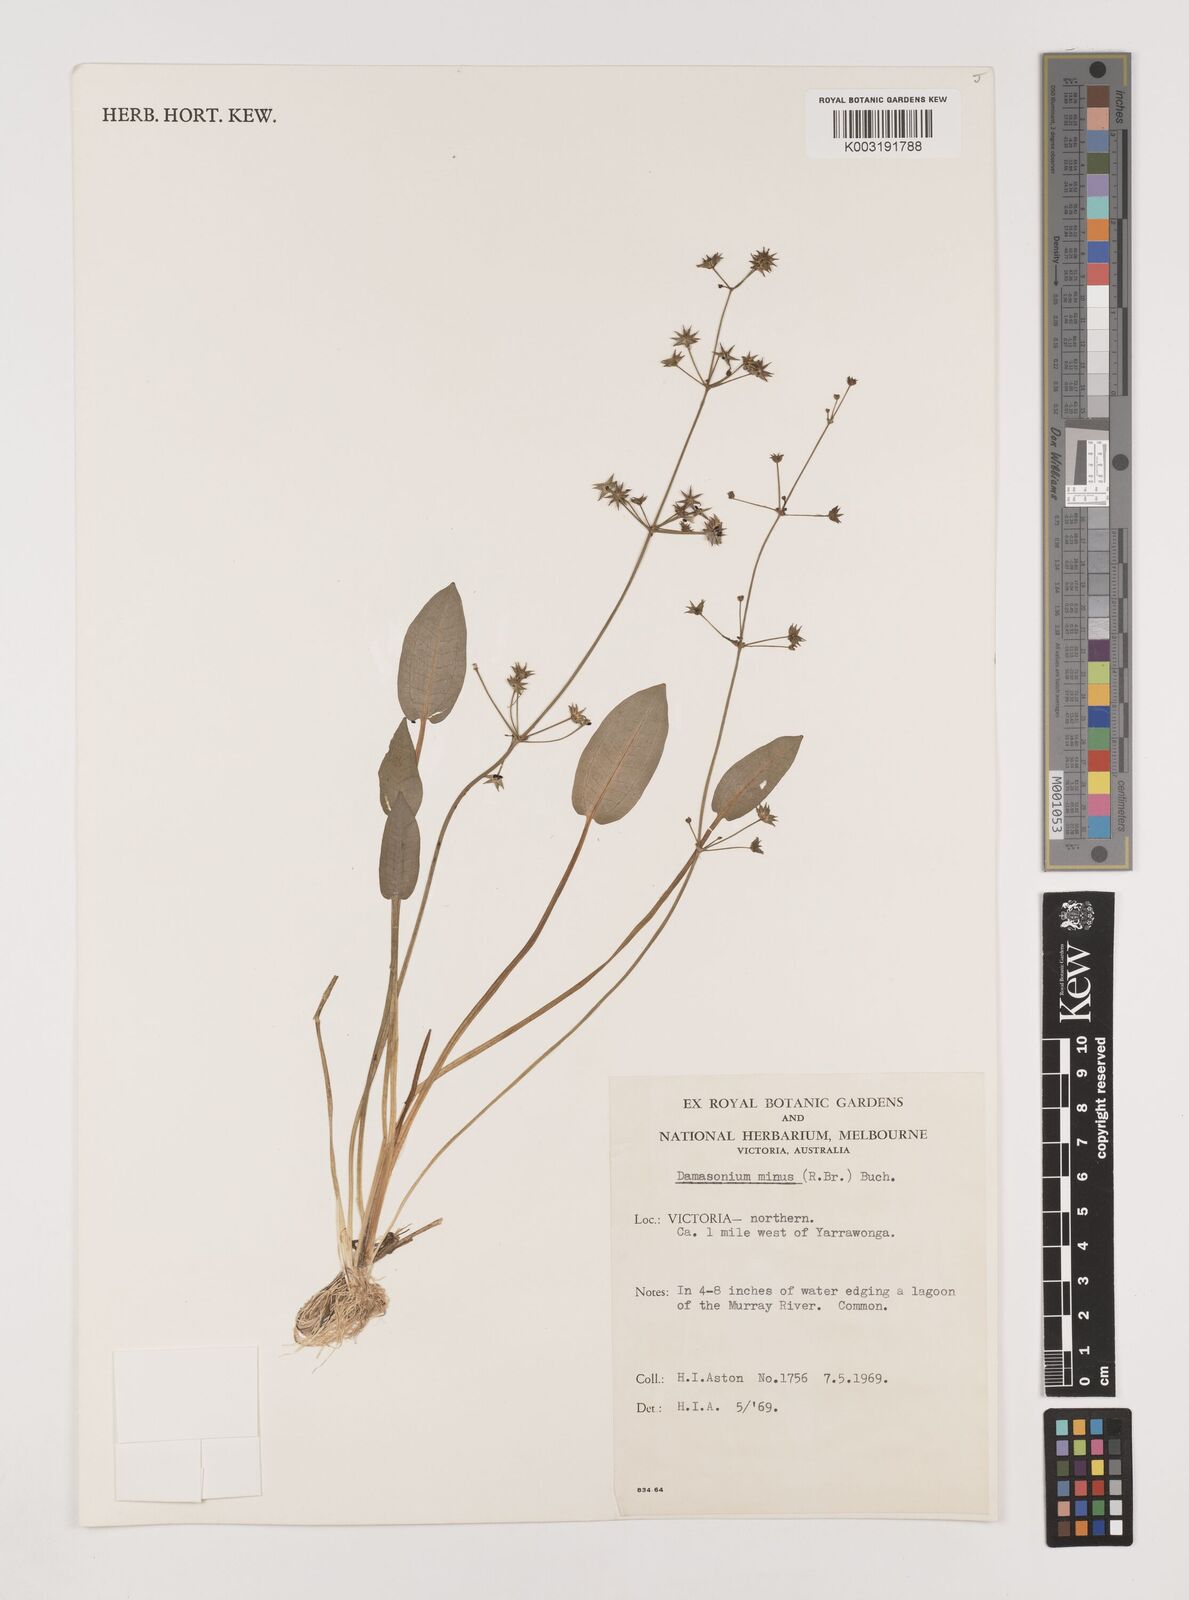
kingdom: Plantae
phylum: Tracheophyta
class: Liliopsida
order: Alismatales
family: Alismataceae
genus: Damasonium
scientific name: Damasonium minus
